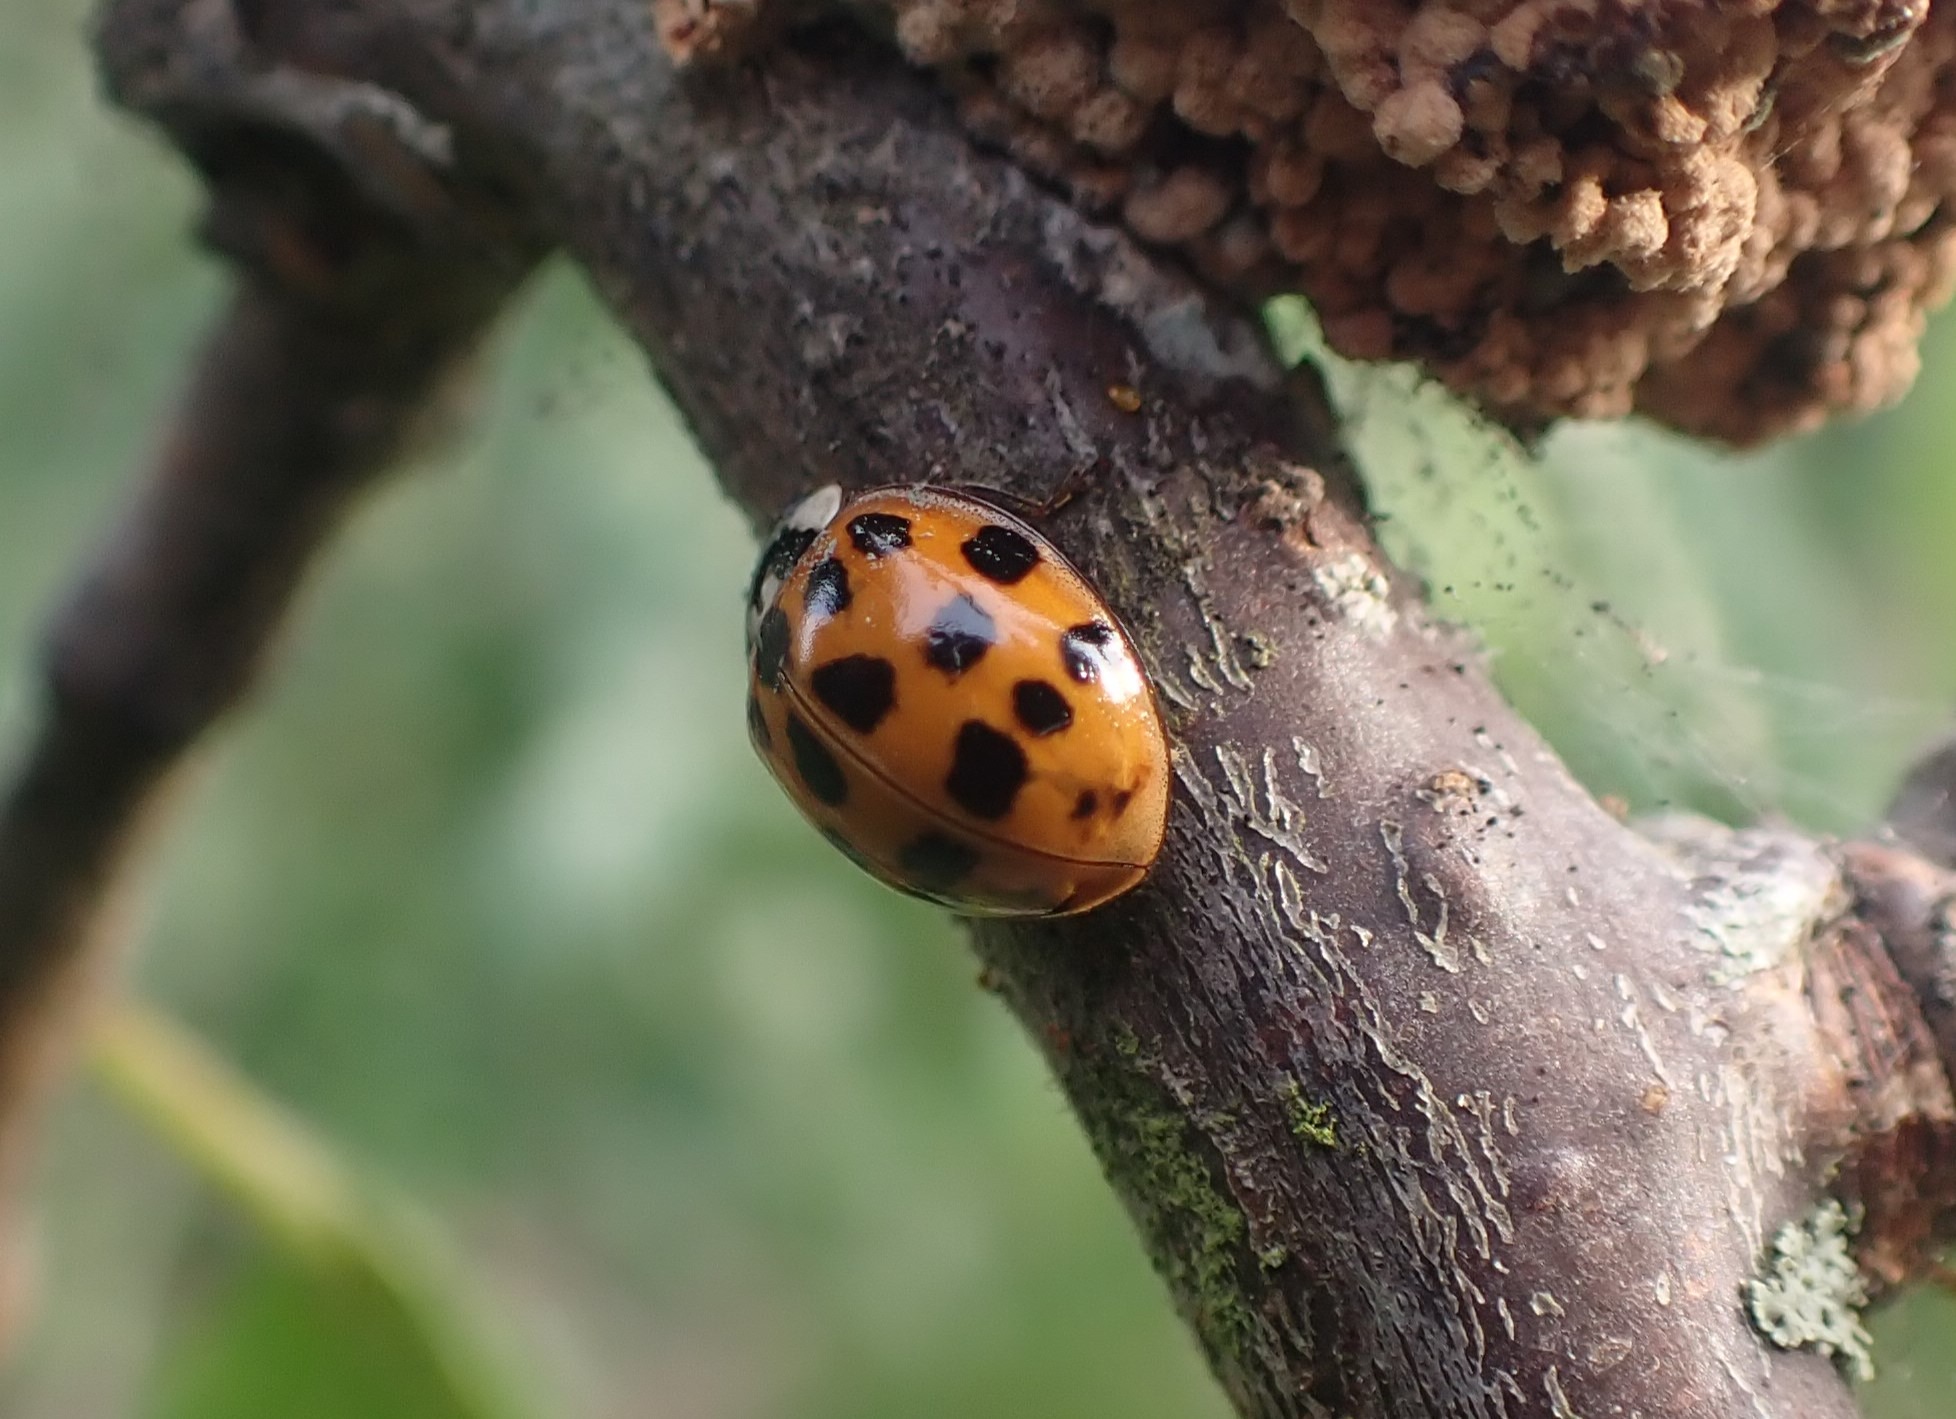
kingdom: Animalia
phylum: Arthropoda
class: Insecta
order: Coleoptera
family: Coccinellidae
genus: Harmonia
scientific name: Harmonia axyridis
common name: Harlekinmariehøne
